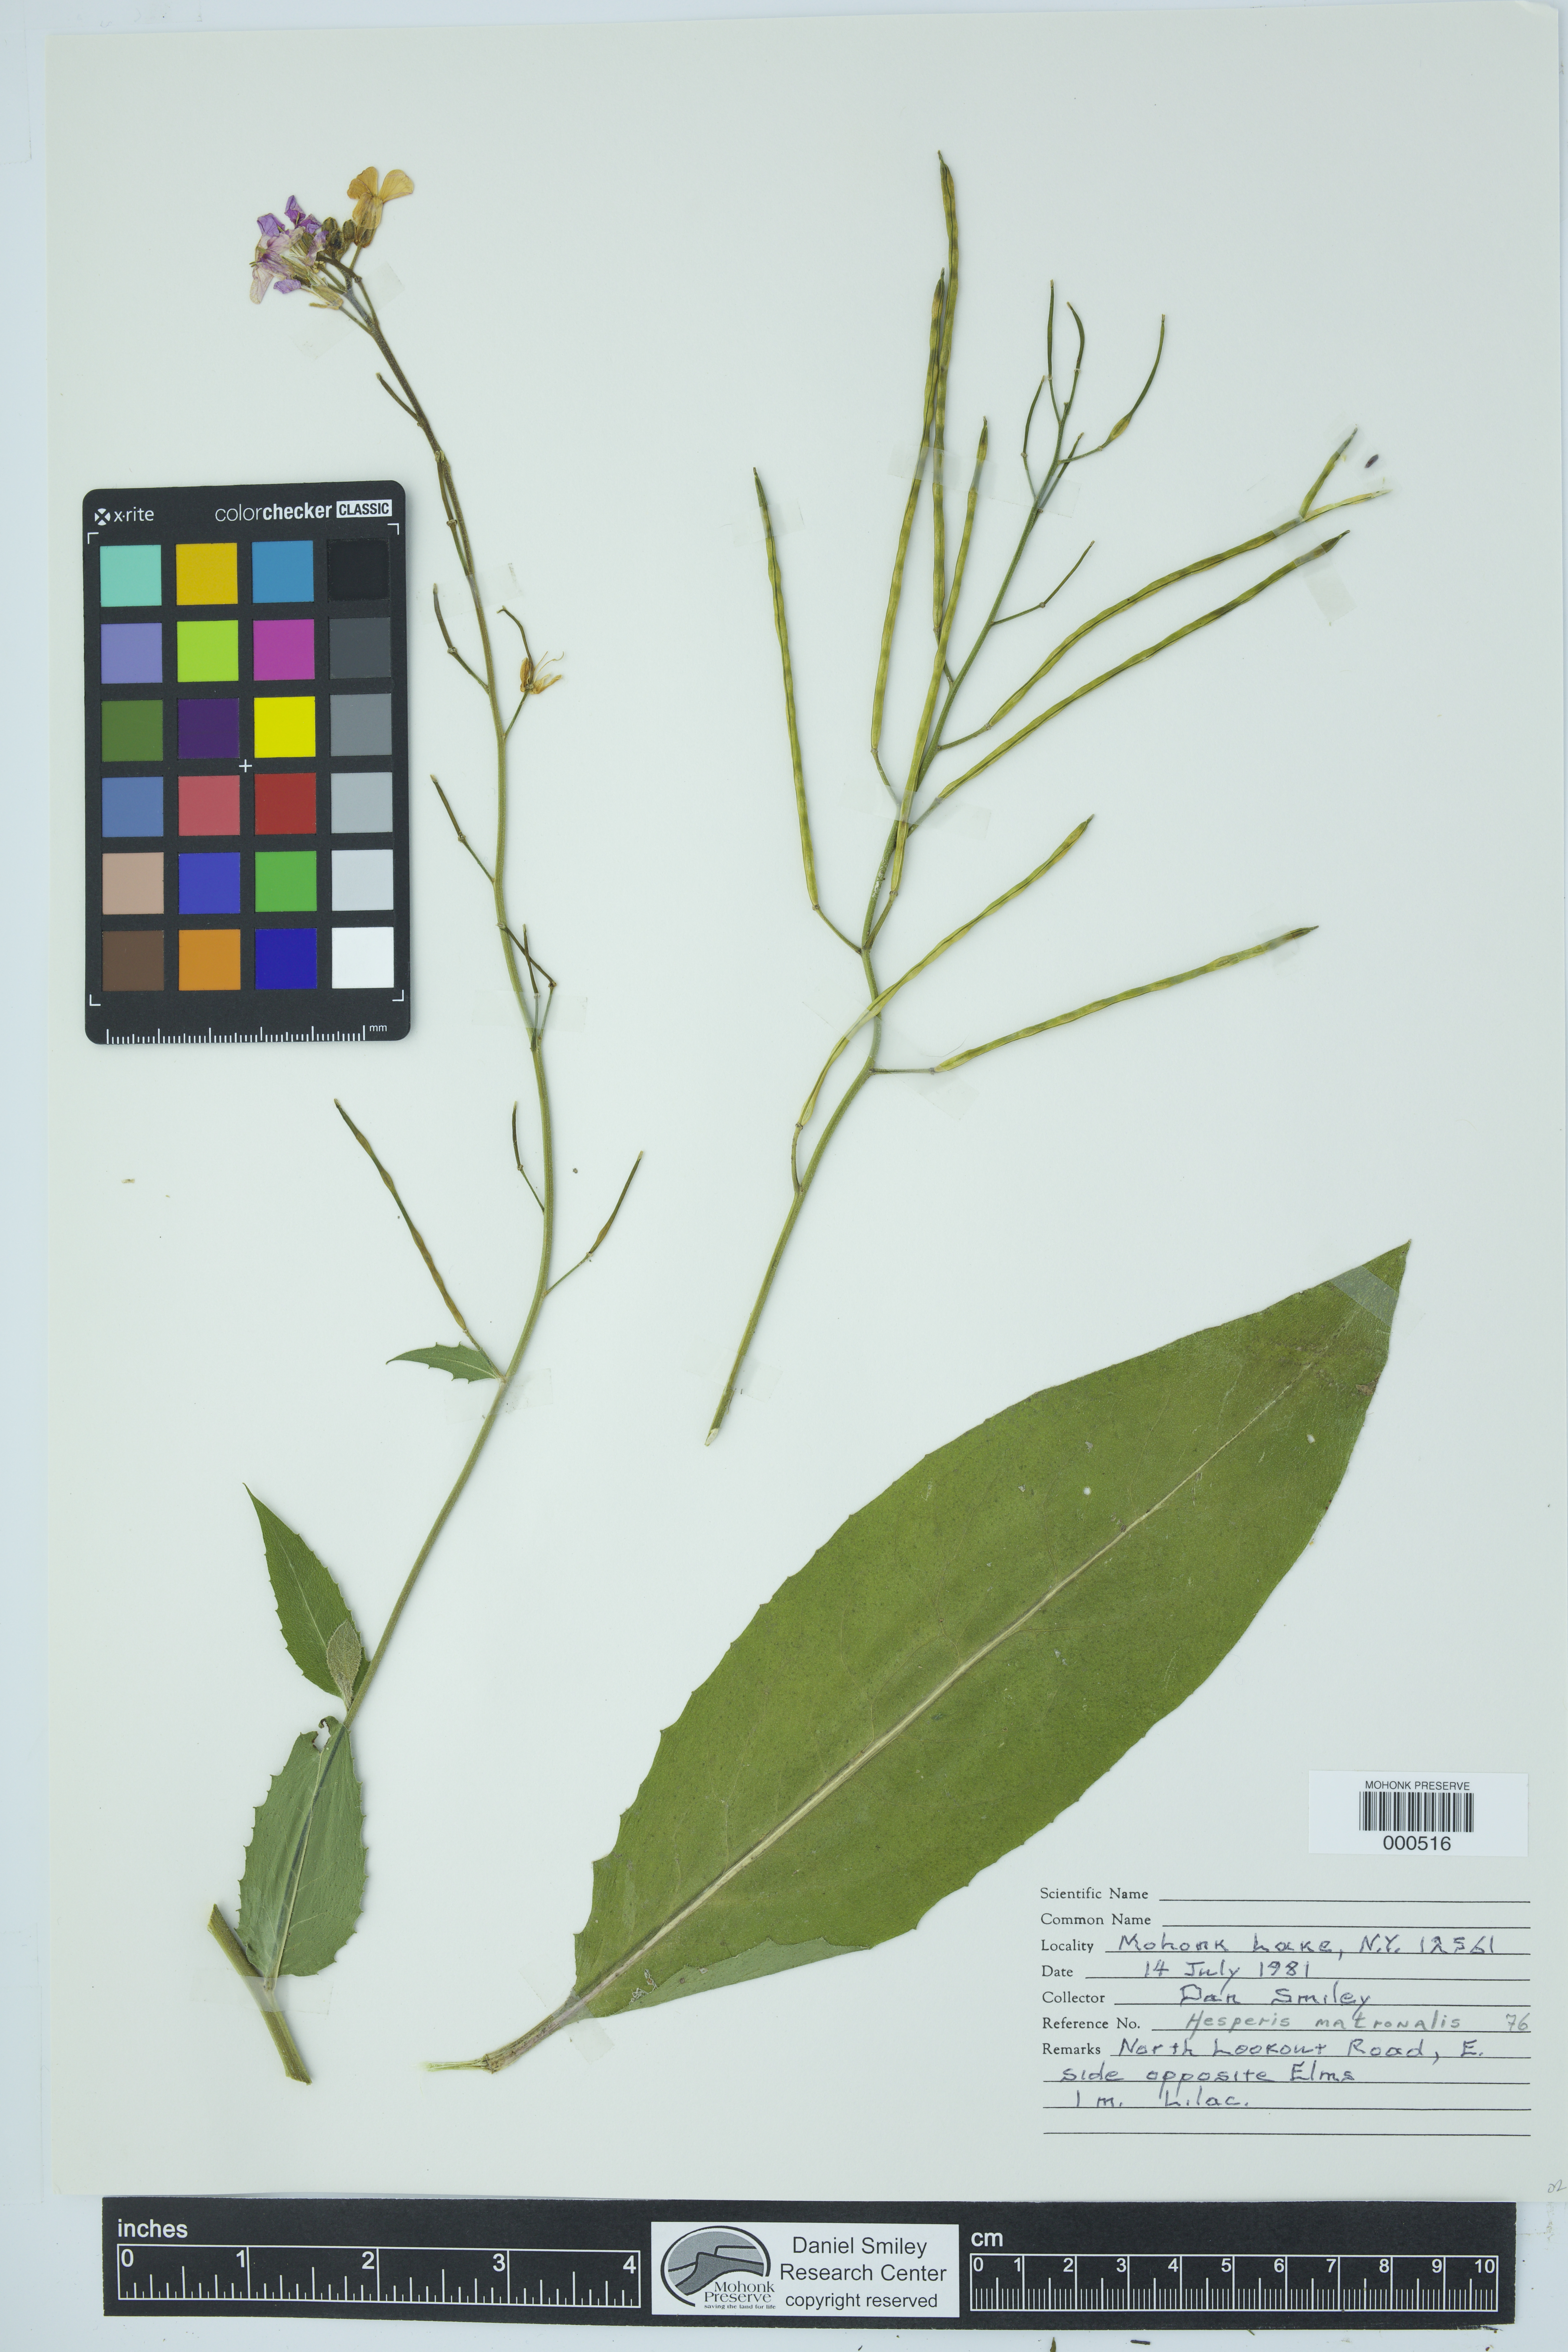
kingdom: Plantae
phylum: Tracheophyta
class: Magnoliopsida
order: Brassicales
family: Brassicaceae
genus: Hesperis
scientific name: Hesperis matronalis
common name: Dame's-violet
